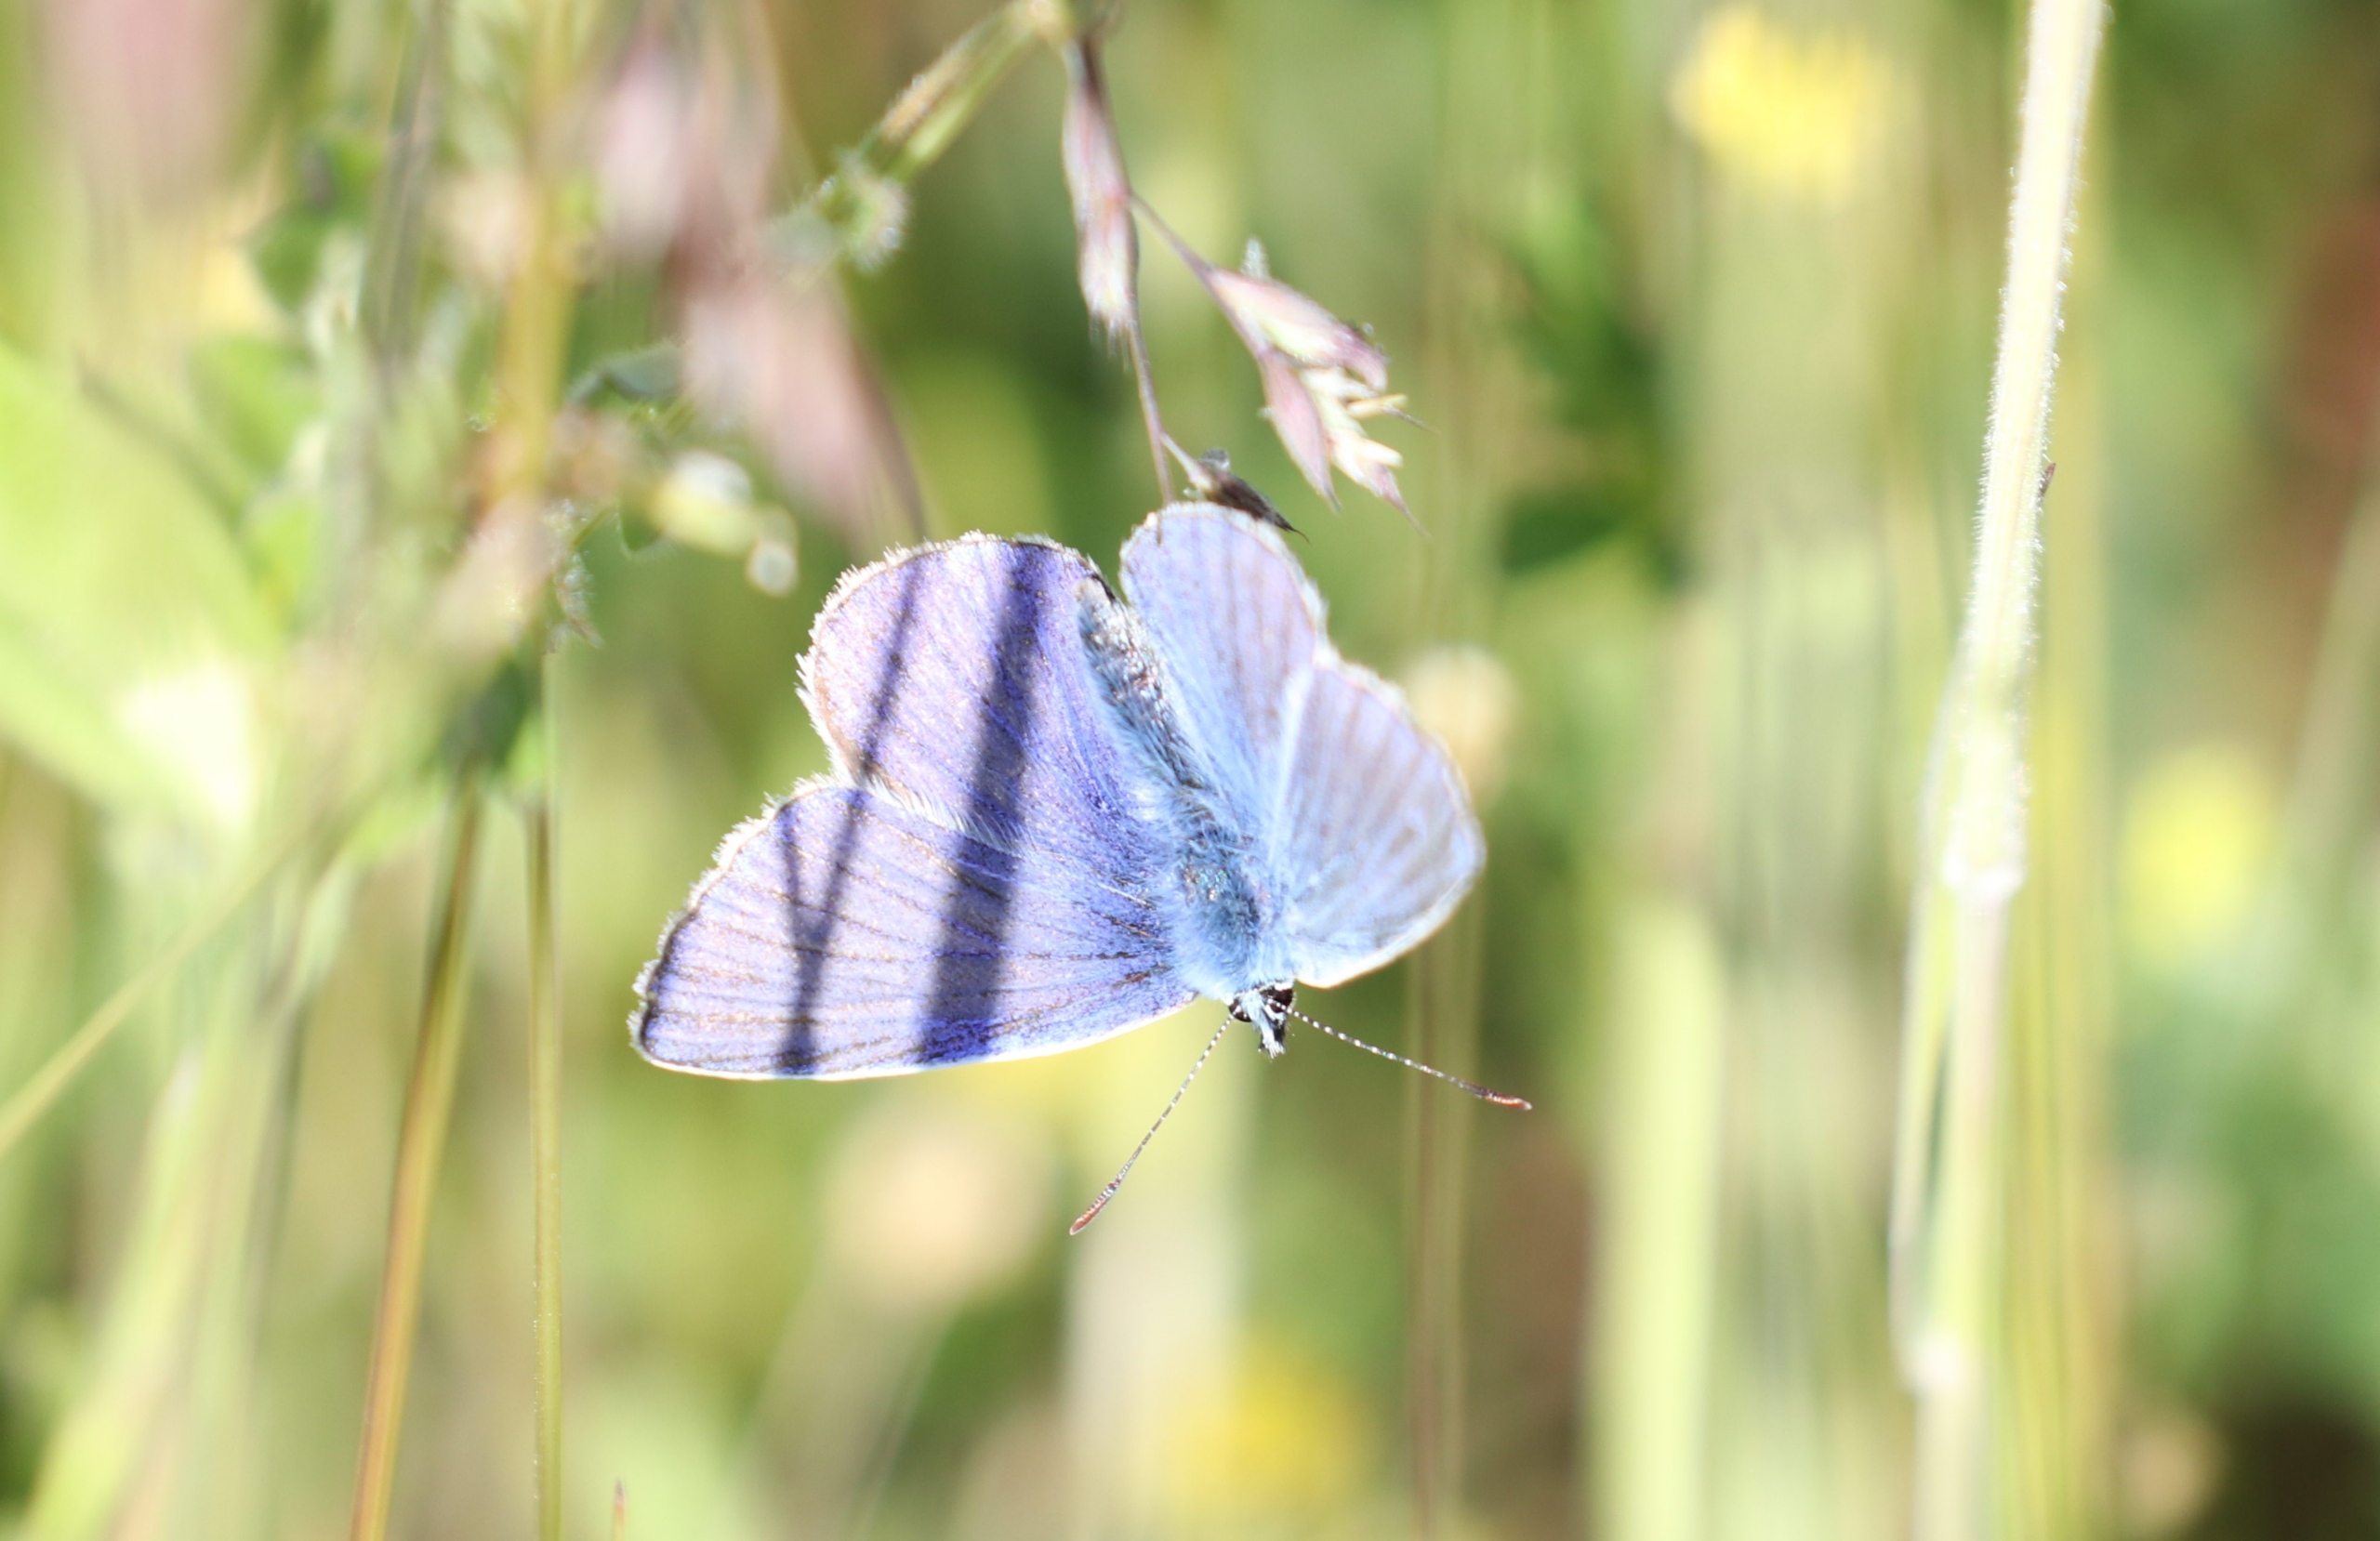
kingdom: Animalia
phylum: Arthropoda
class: Insecta
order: Lepidoptera
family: Lycaenidae
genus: Polyommatus
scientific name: Polyommatus icarus
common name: Almindelig blåfugl
